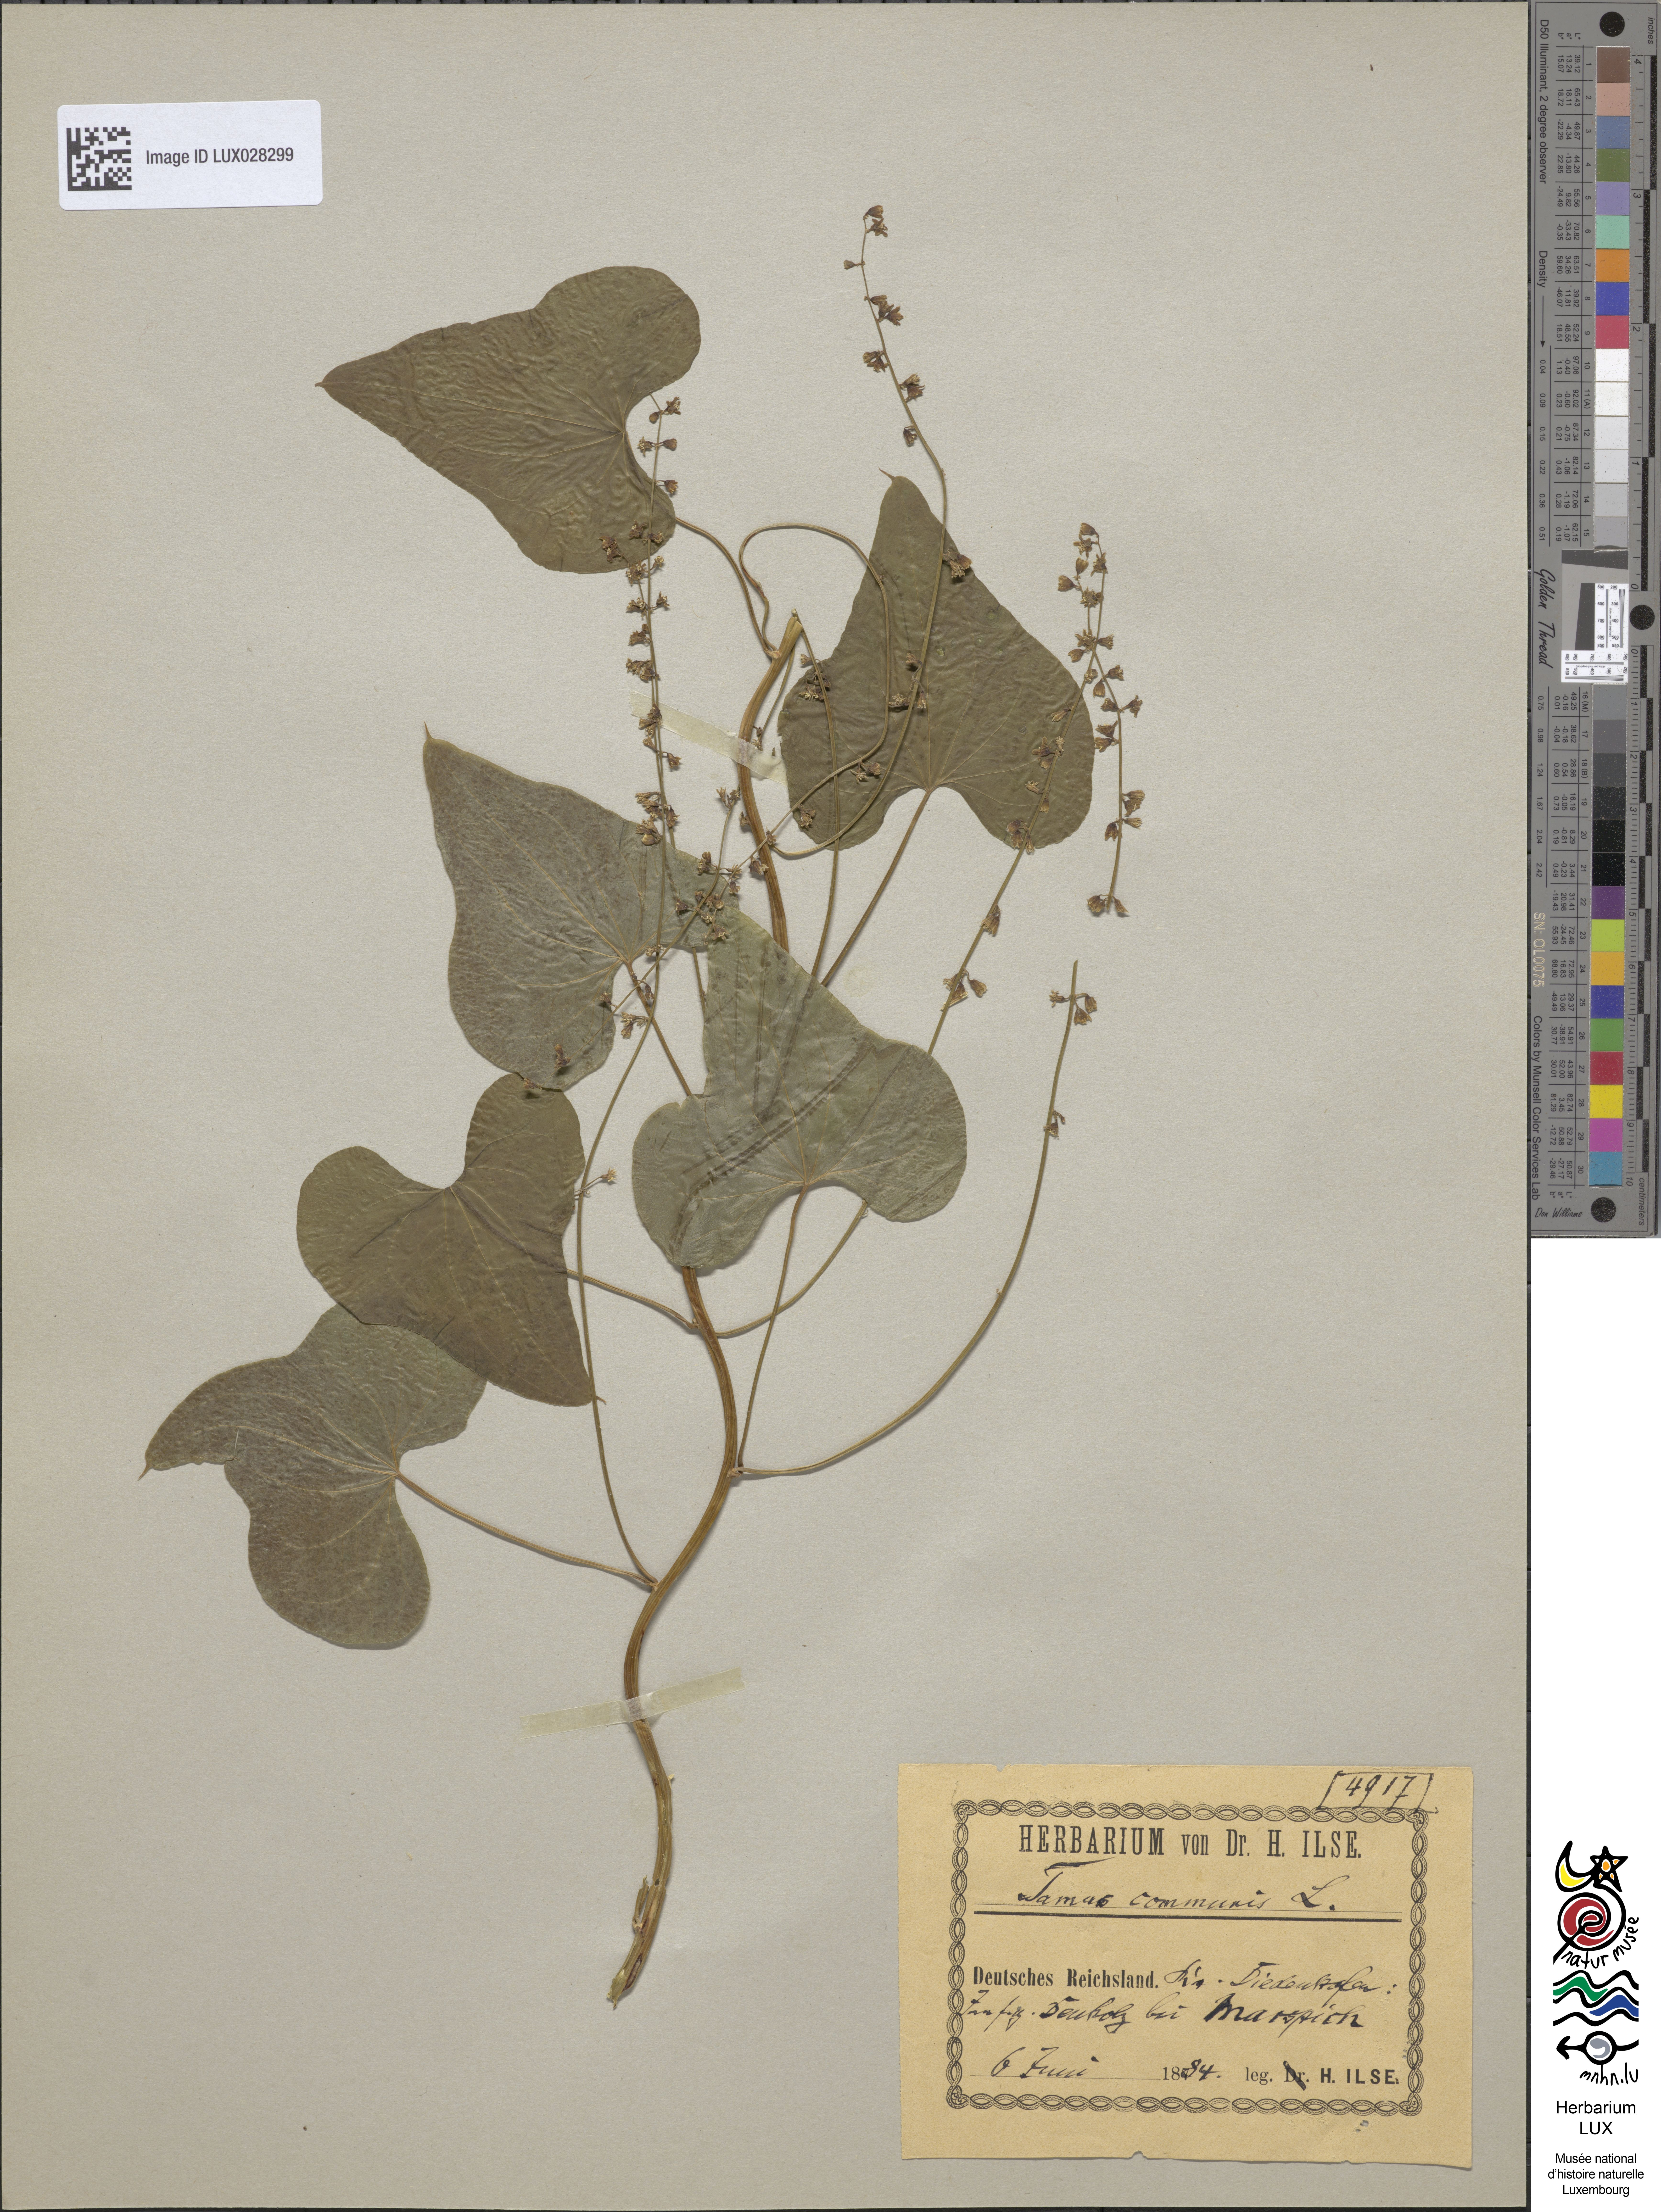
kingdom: Plantae
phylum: Tracheophyta
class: Liliopsida
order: Dioscoreales
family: Dioscoreaceae
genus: Dioscorea
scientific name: Dioscorea communis
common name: Black-bindweed
